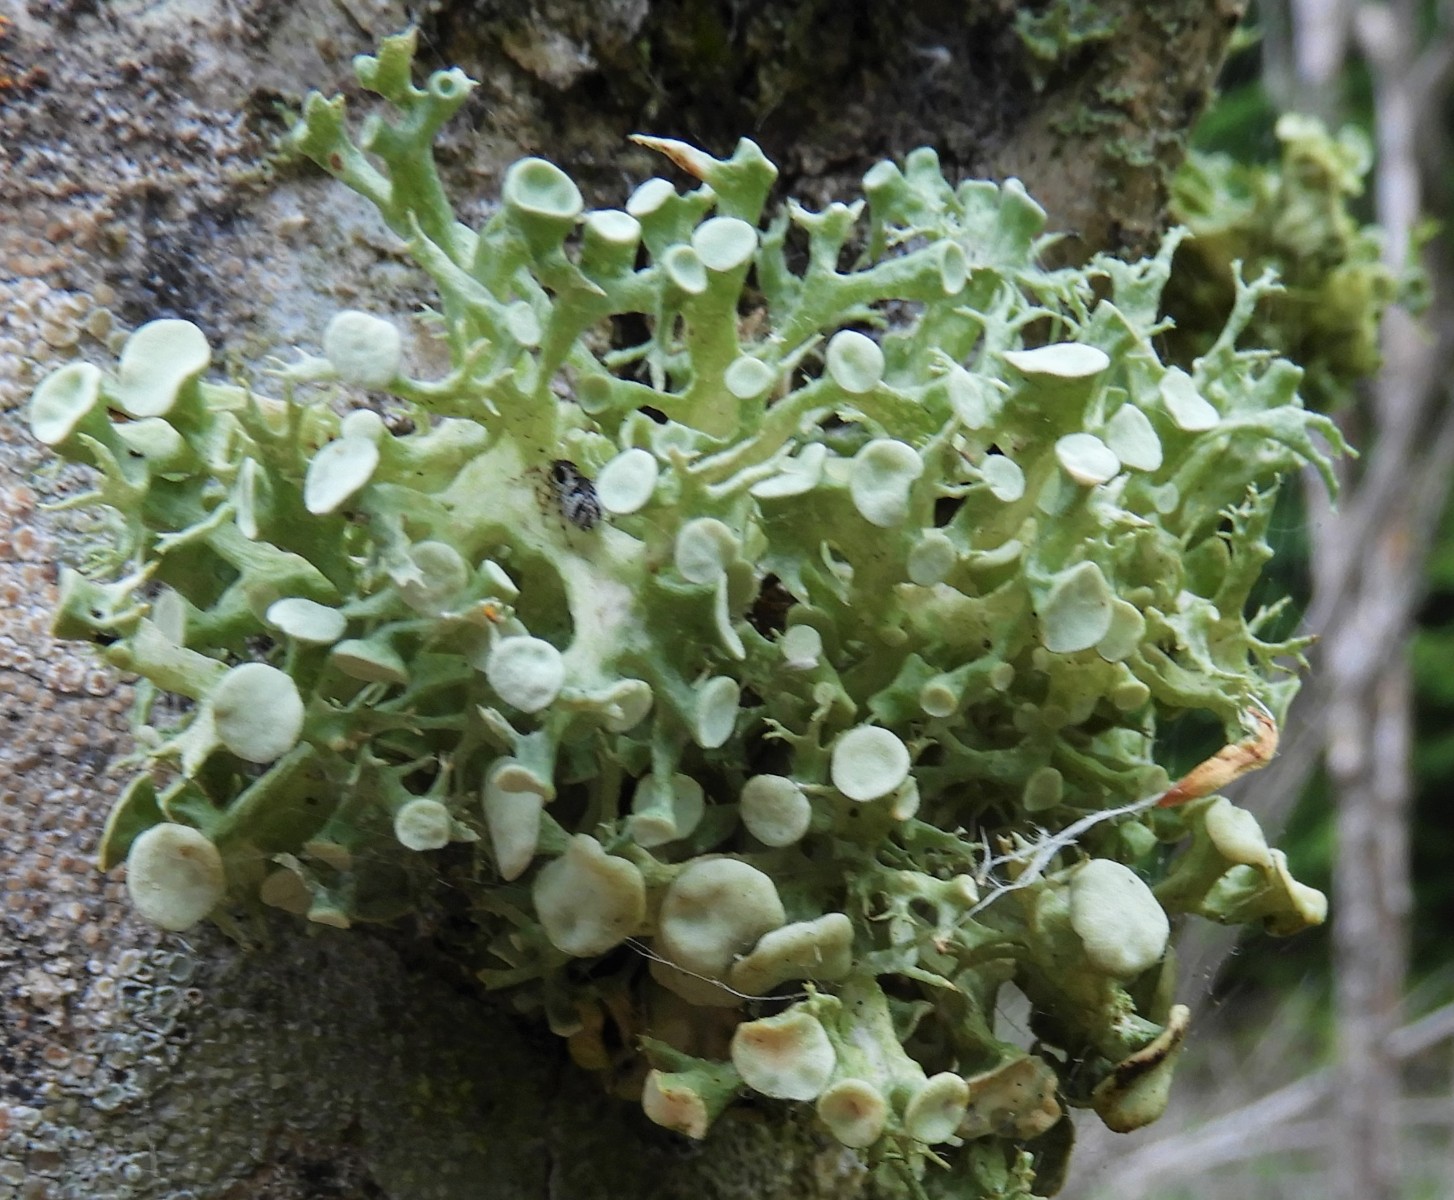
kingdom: Fungi
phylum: Ascomycota
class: Lecanoromycetes
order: Lecanorales
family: Ramalinaceae
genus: Ramalina
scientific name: Ramalina fastigiata
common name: tue-grenlav
